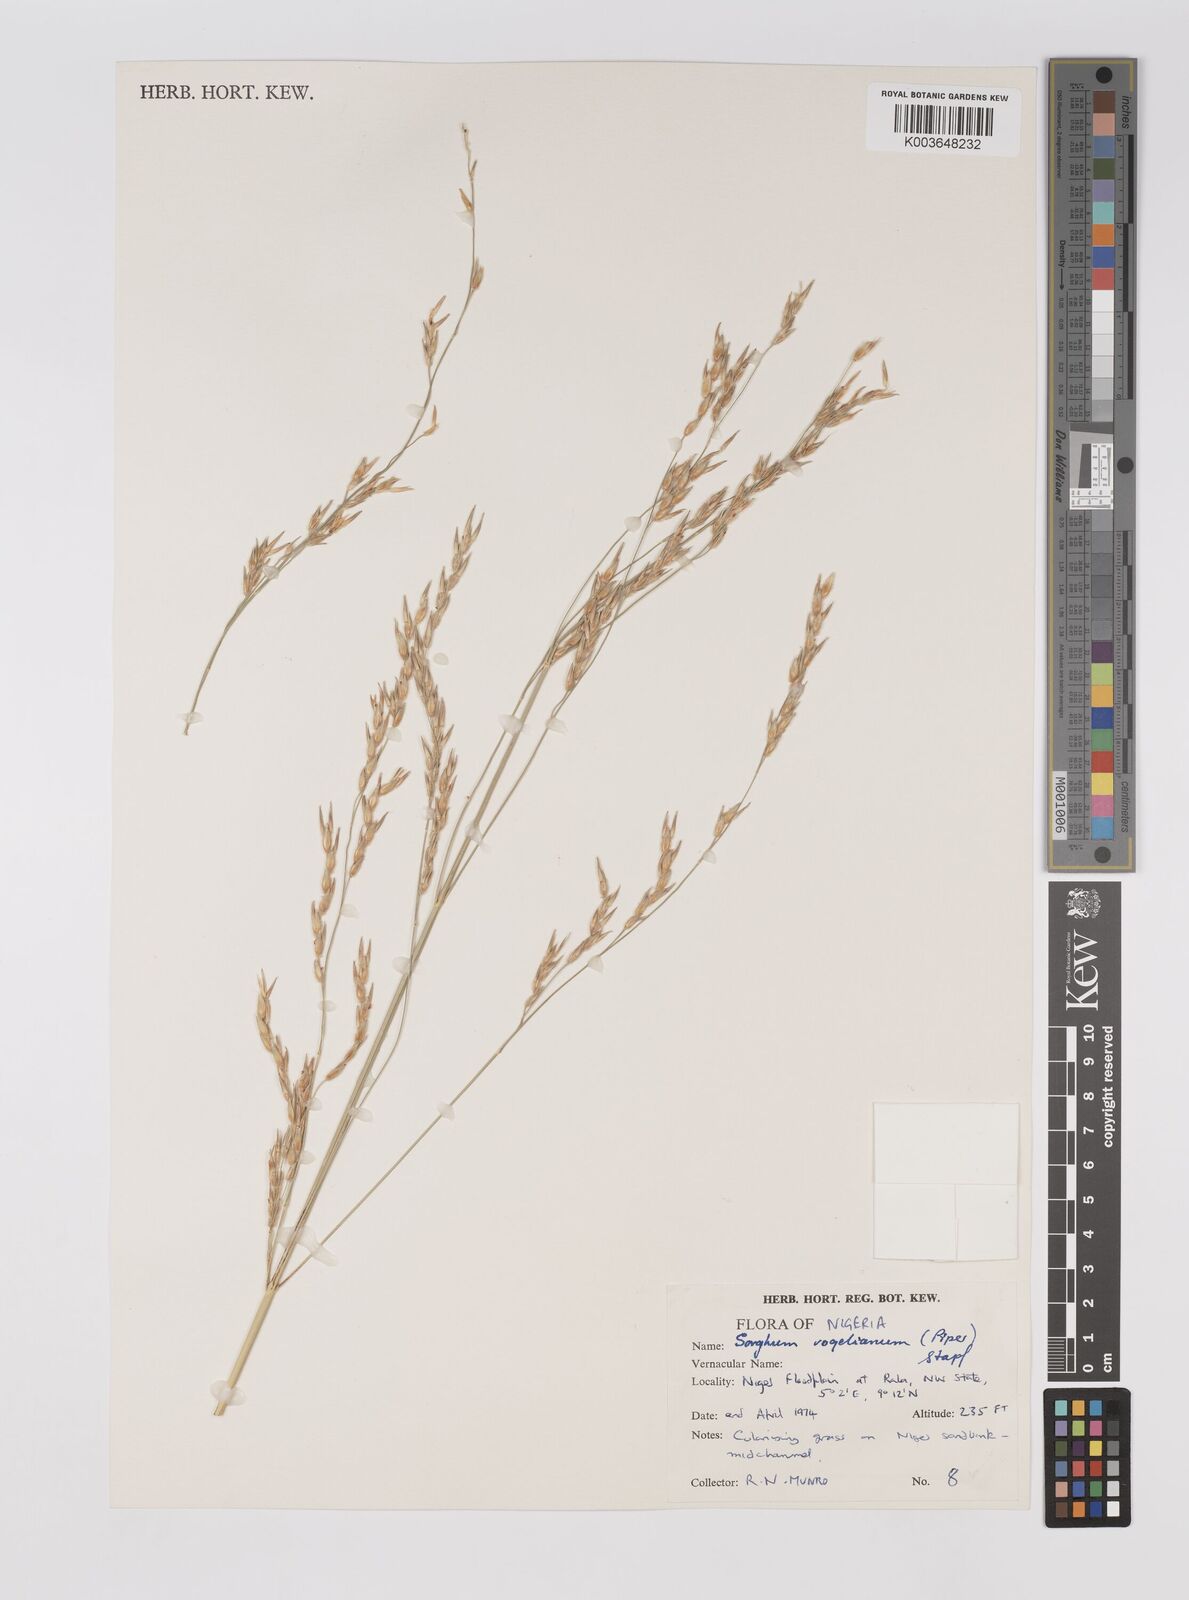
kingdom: Plantae
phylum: Tracheophyta
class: Liliopsida
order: Poales
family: Poaceae
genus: Sorghum
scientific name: Sorghum arundinaceum
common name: Sorghum
